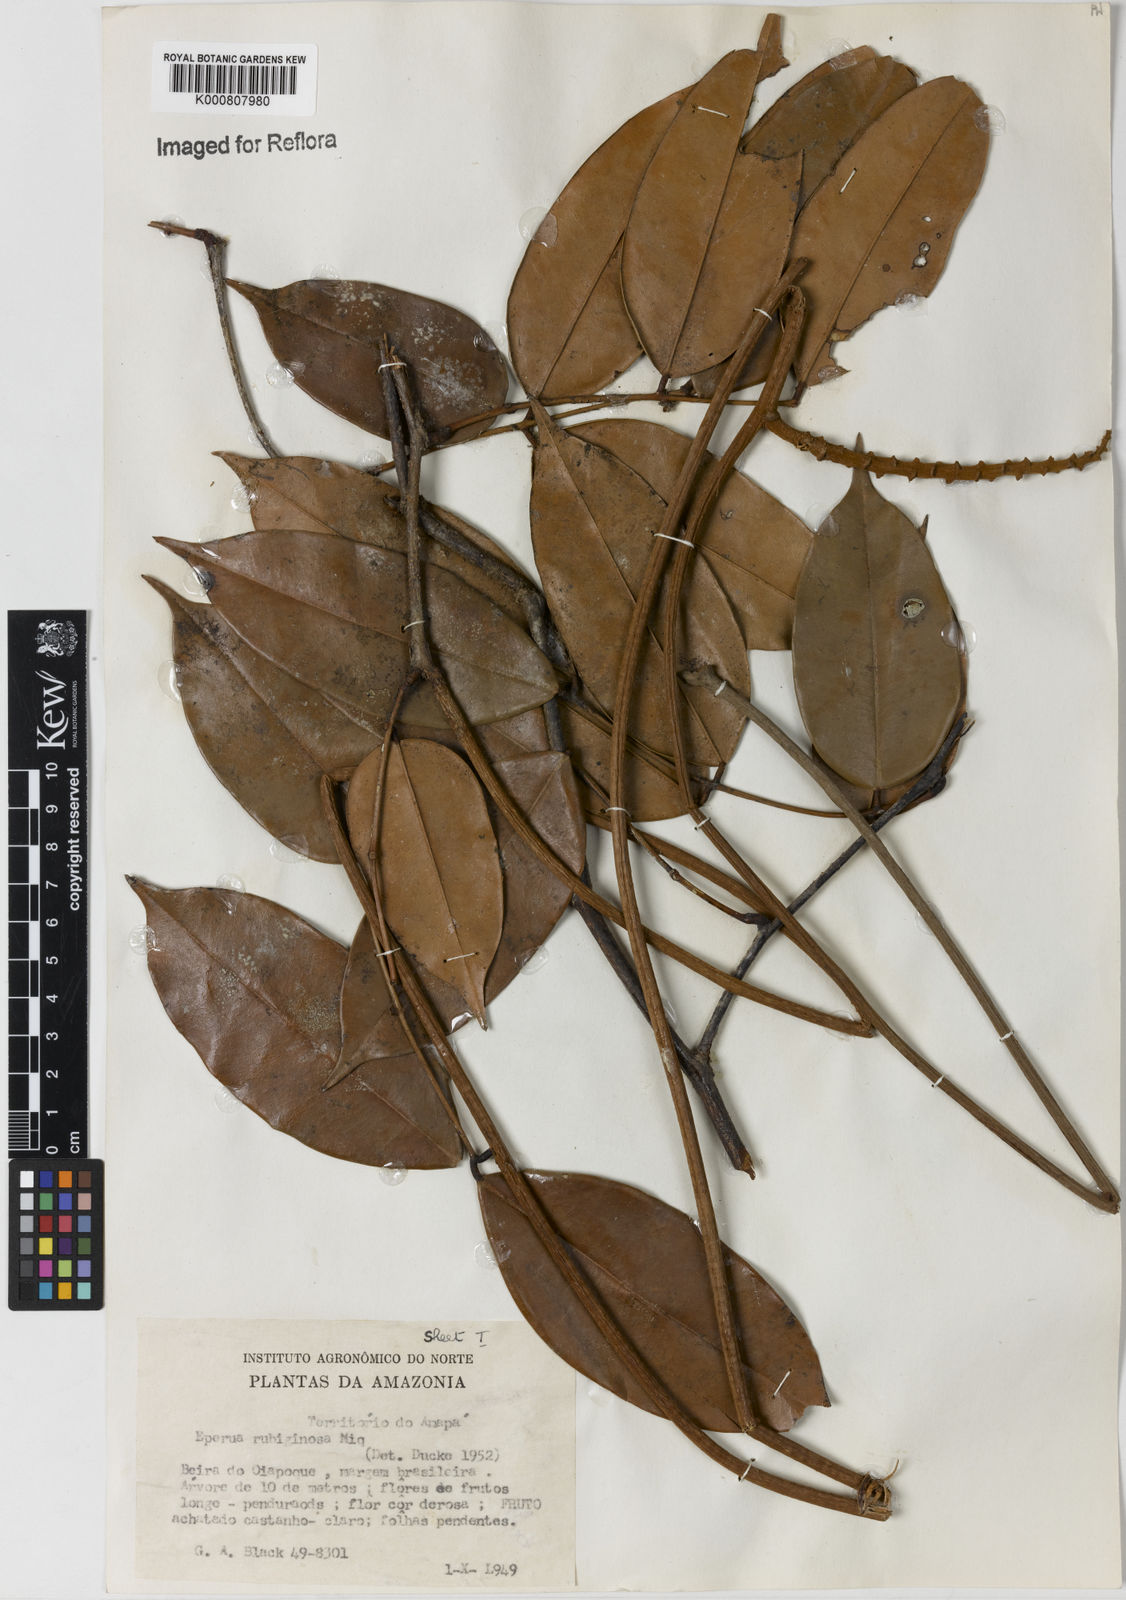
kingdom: Plantae
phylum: Tracheophyta
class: Magnoliopsida
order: Fabales
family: Fabaceae
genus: Eperua
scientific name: Eperua rubiginosa
